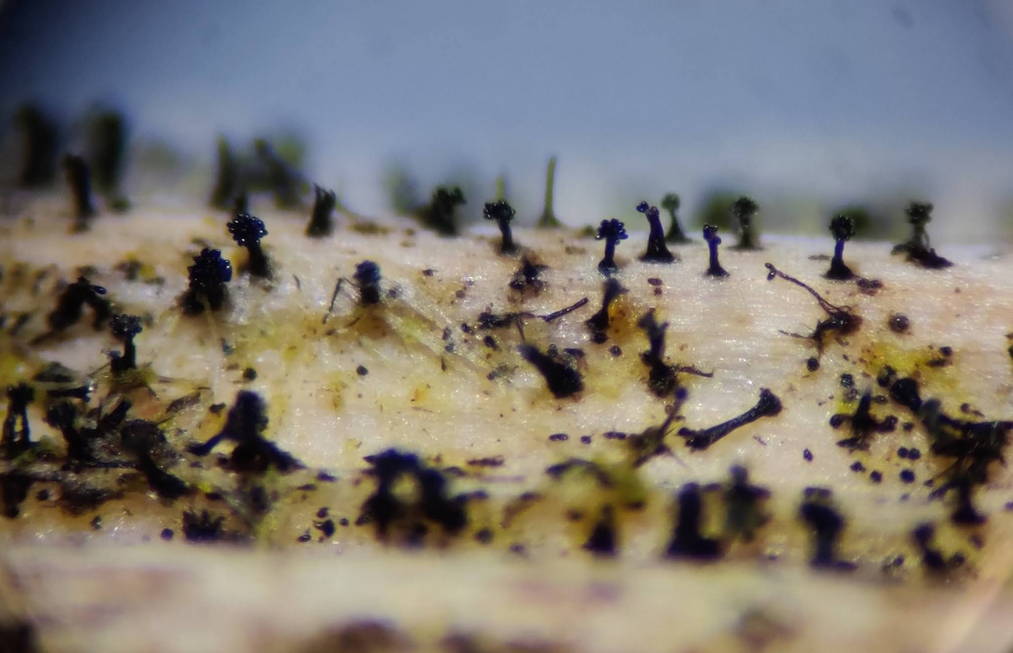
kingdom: Fungi
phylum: Ascomycota
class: Dothideomycetes
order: Pleosporales
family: Melanommataceae
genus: Phragmocephala
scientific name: Phragmocephala elliptica
